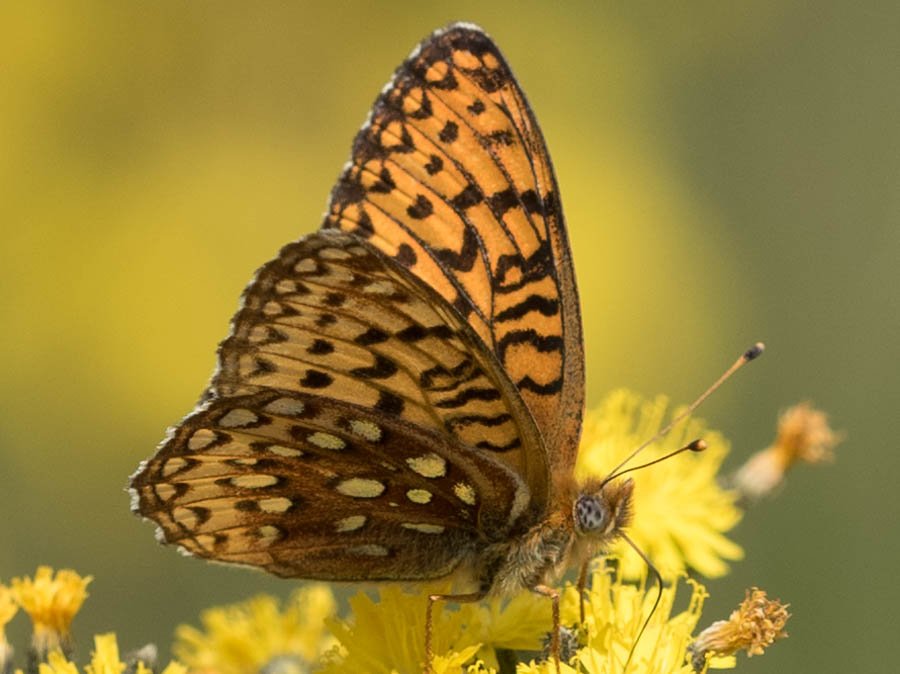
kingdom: Animalia
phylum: Arthropoda
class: Insecta
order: Lepidoptera
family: Nymphalidae
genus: Speyeria
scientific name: Speyeria atlantis
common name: Northwestern Fritillary
